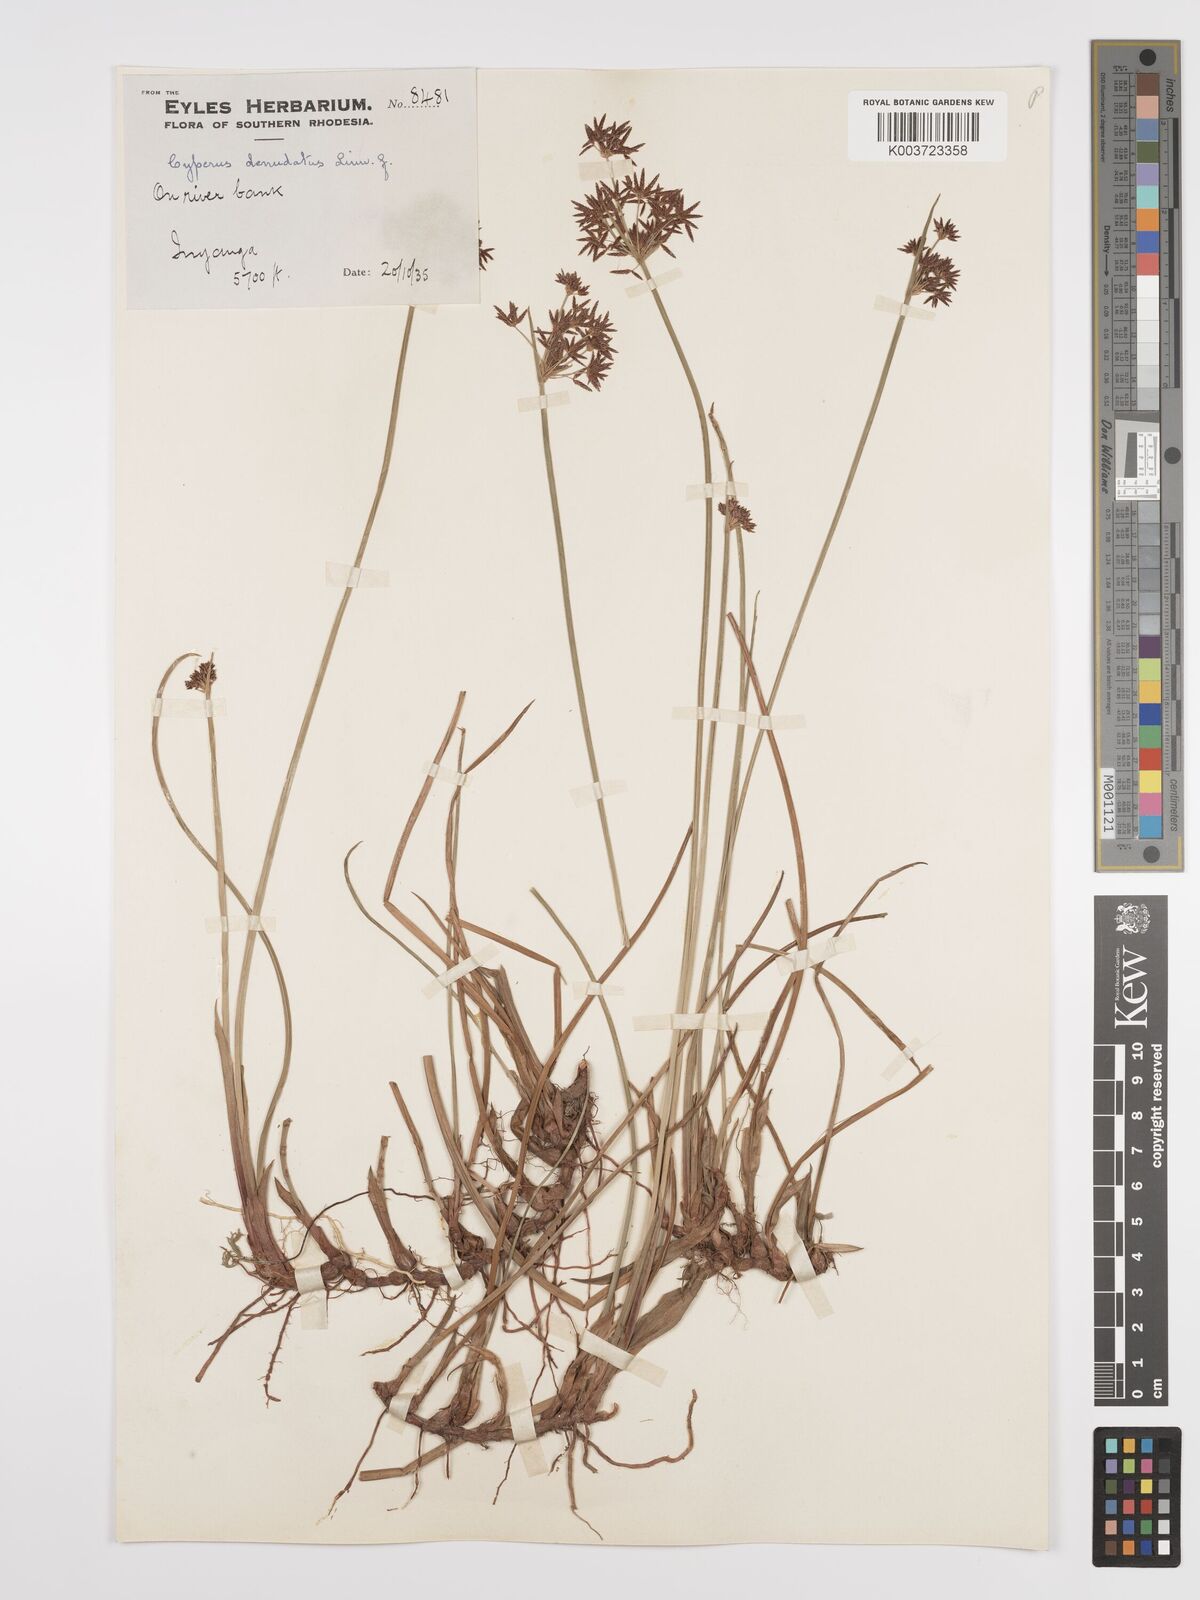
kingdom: Plantae
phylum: Tracheophyta
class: Liliopsida
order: Poales
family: Cyperaceae
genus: Cyperus
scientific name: Cyperus denudatus
